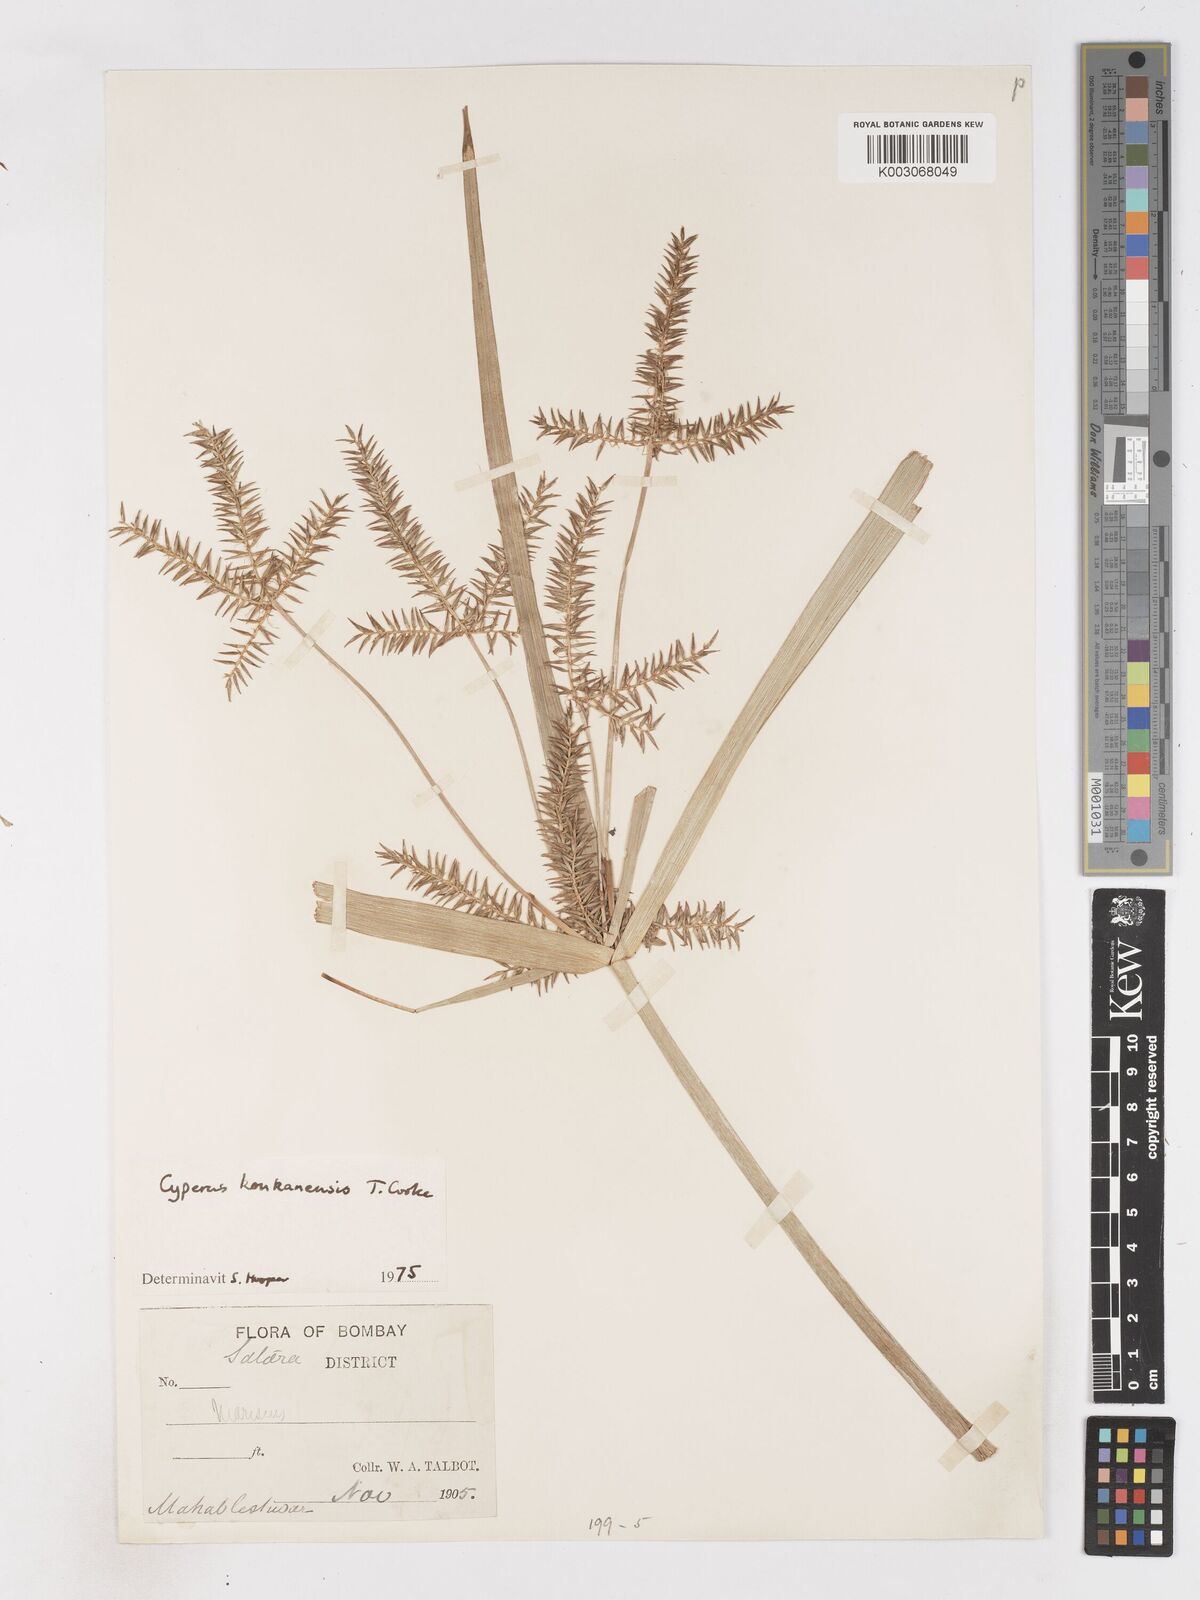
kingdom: Plantae
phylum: Tracheophyta
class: Liliopsida
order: Poales
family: Cyperaceae
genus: Cyperus
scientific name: Cyperus kanarensis
